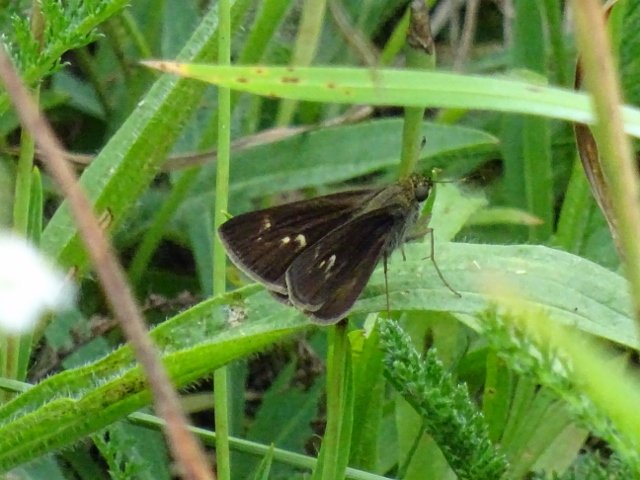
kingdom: Animalia
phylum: Arthropoda
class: Insecta
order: Lepidoptera
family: Hesperiidae
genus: Polites
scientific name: Polites egeremet
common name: Northern Broken-Dash
